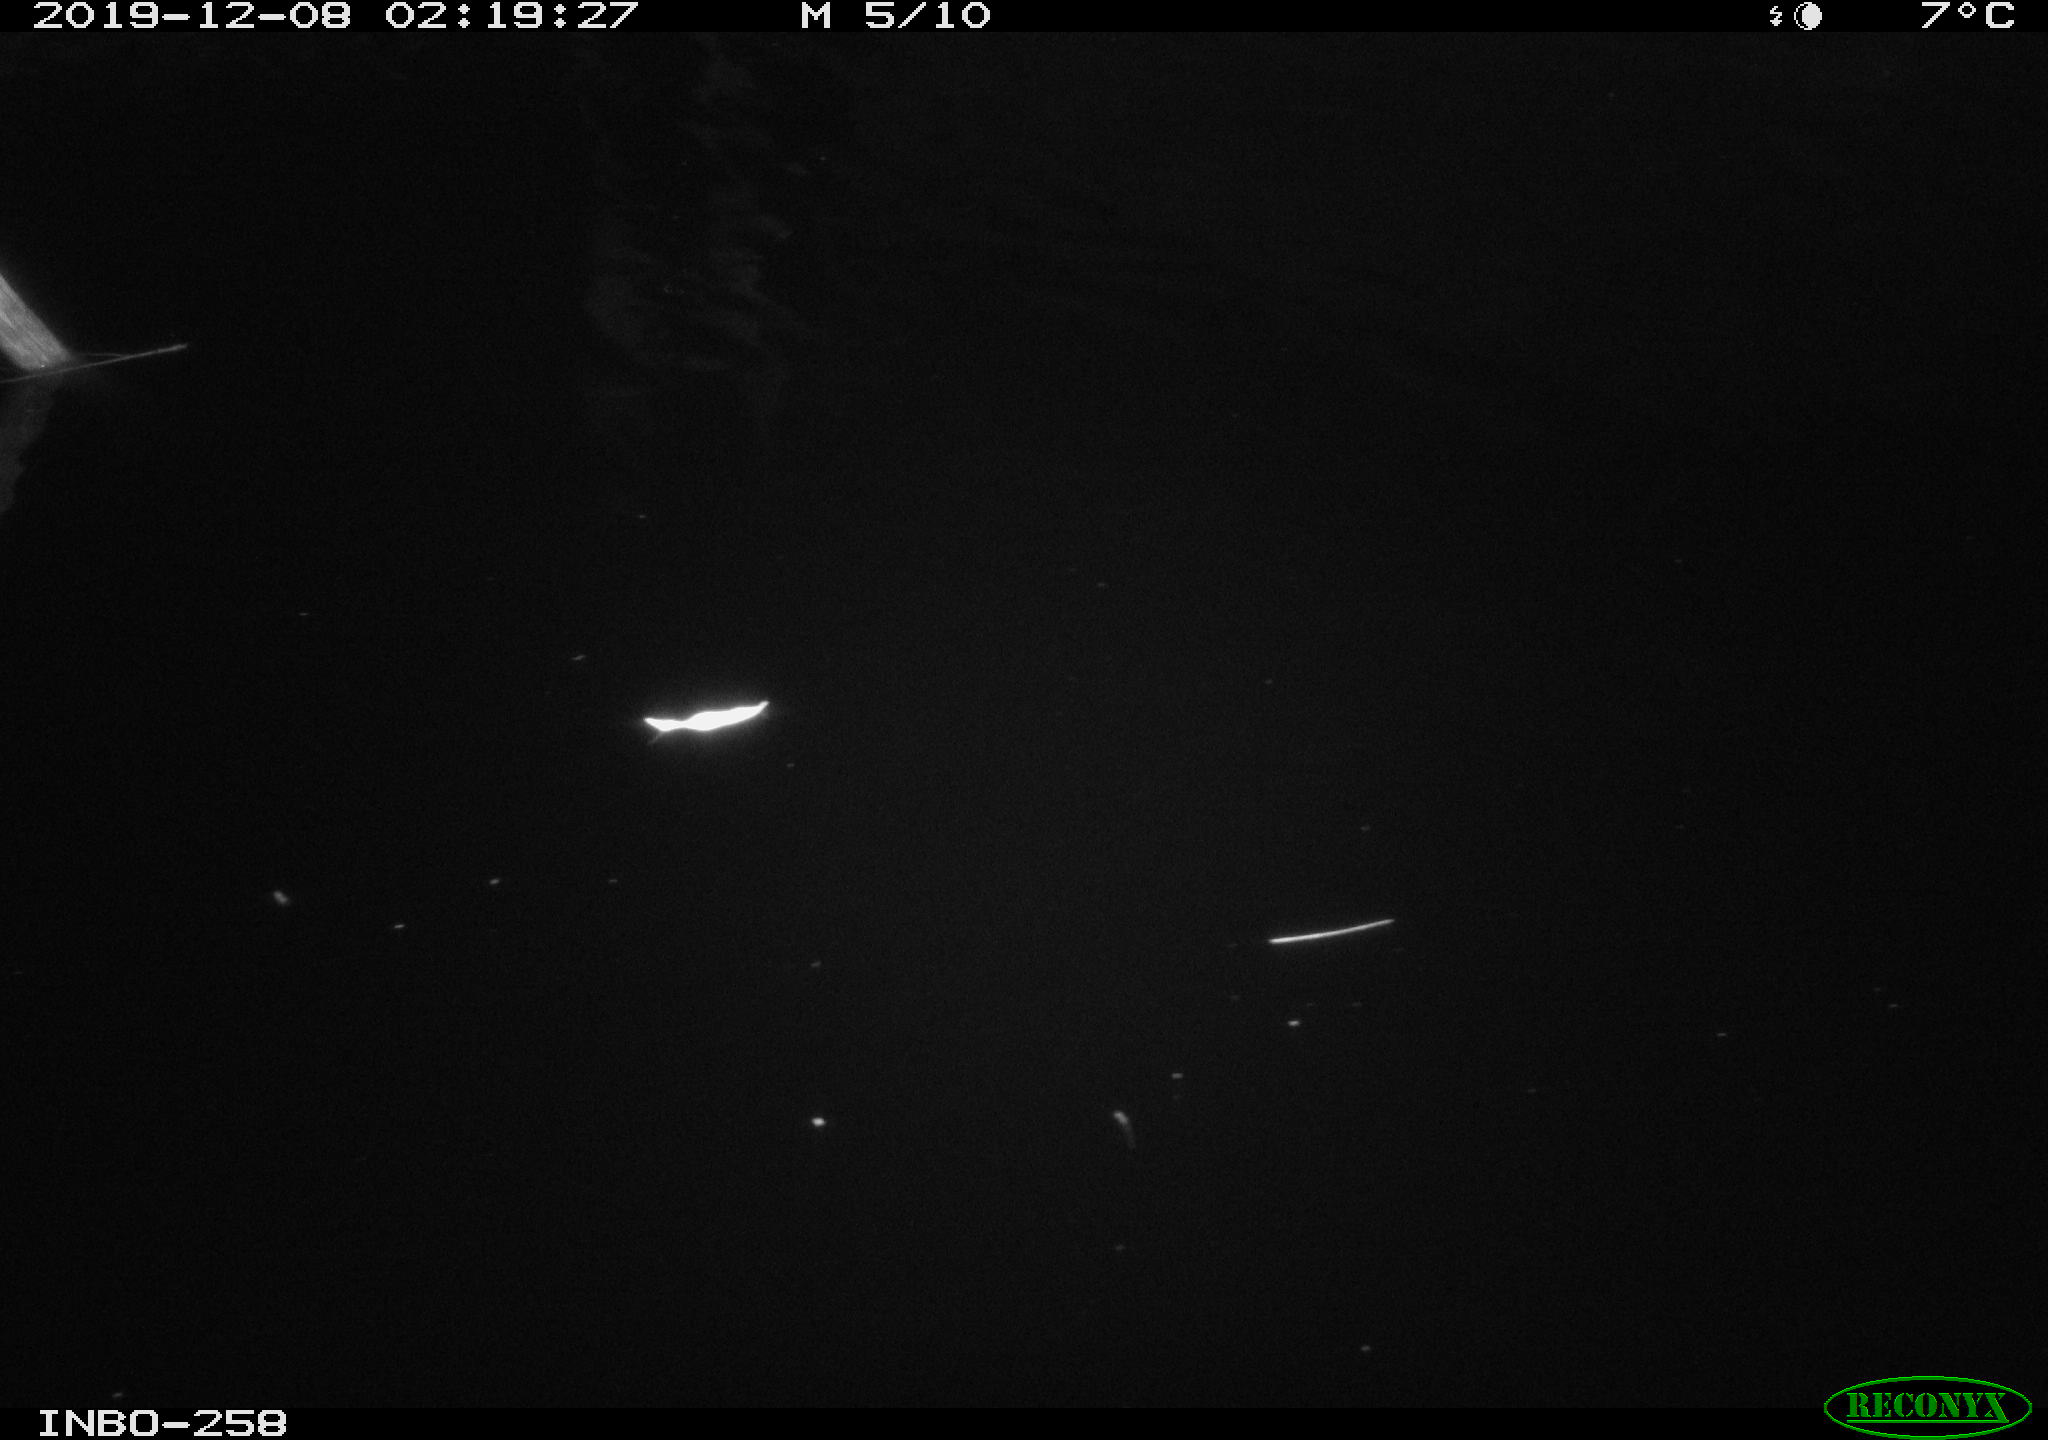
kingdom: Animalia
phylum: Chordata
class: Aves
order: Anseriformes
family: Anatidae
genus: Anas
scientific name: Anas platyrhynchos
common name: Mallard
